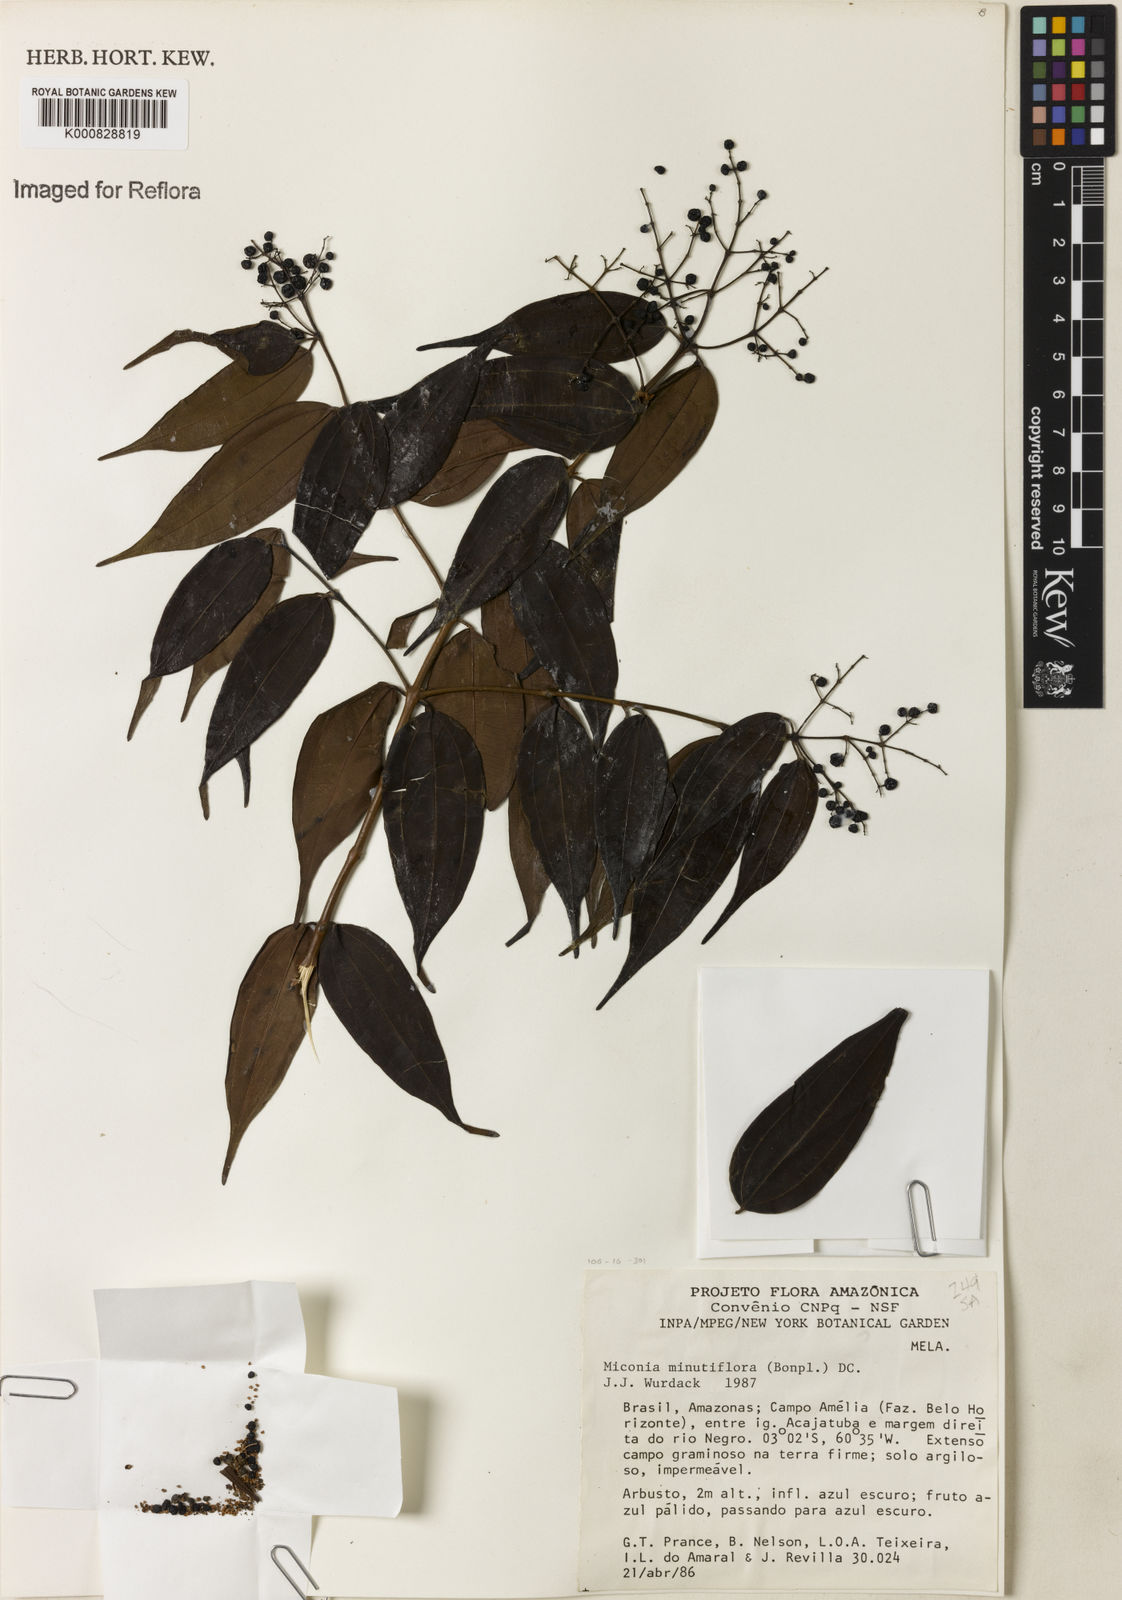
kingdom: Plantae
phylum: Tracheophyta
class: Magnoliopsida
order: Myrtales
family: Melastomataceae
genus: Miconia
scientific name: Miconia minutiflora
